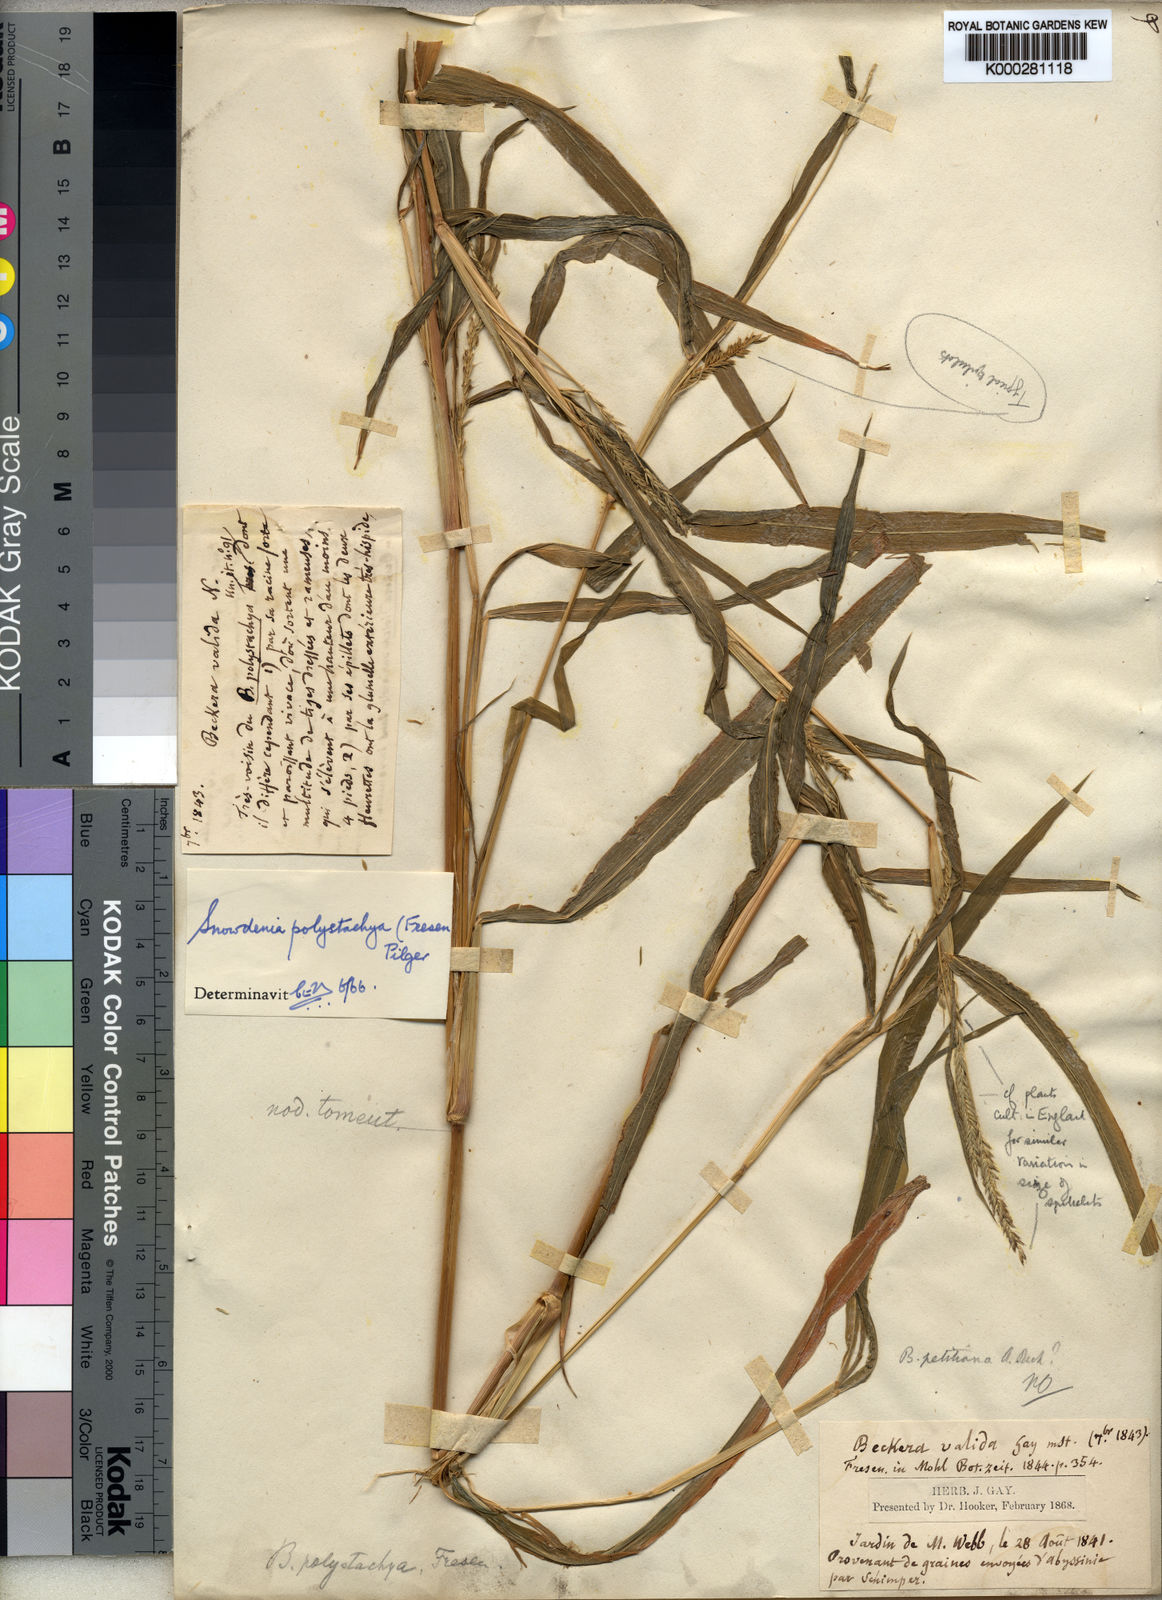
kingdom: Plantae
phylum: Tracheophyta
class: Liliopsida
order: Poales
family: Poaceae
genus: Snowdenia
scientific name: Snowdenia polystachya
